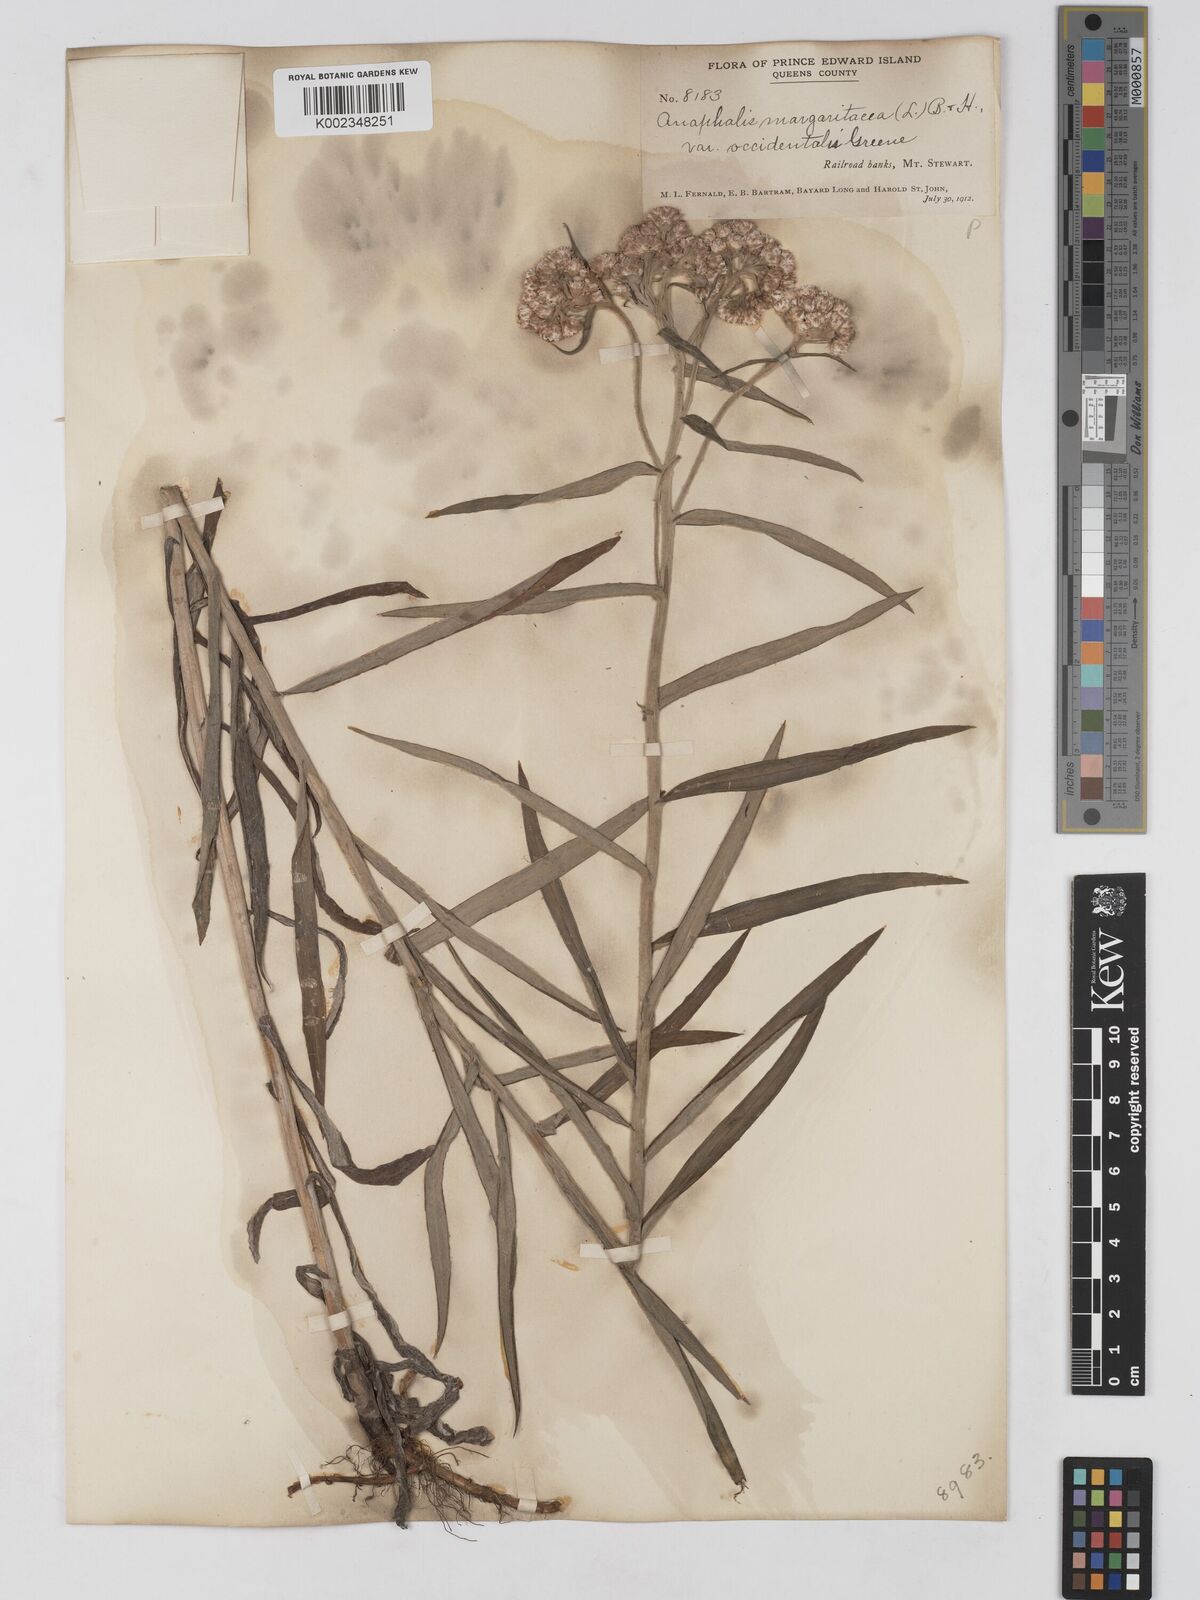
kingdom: Plantae
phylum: Tracheophyta
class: Magnoliopsida
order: Asterales
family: Asteraceae
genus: Anaphalis
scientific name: Anaphalis margaritacea
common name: Pearly everlasting
